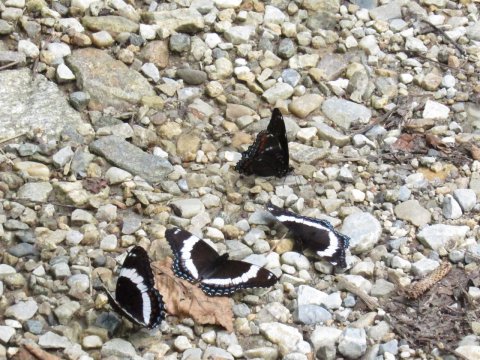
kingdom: Animalia
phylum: Arthropoda
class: Insecta
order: Lepidoptera
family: Nymphalidae
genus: Limenitis
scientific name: Limenitis arthemis
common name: Red-spotted Admiral
